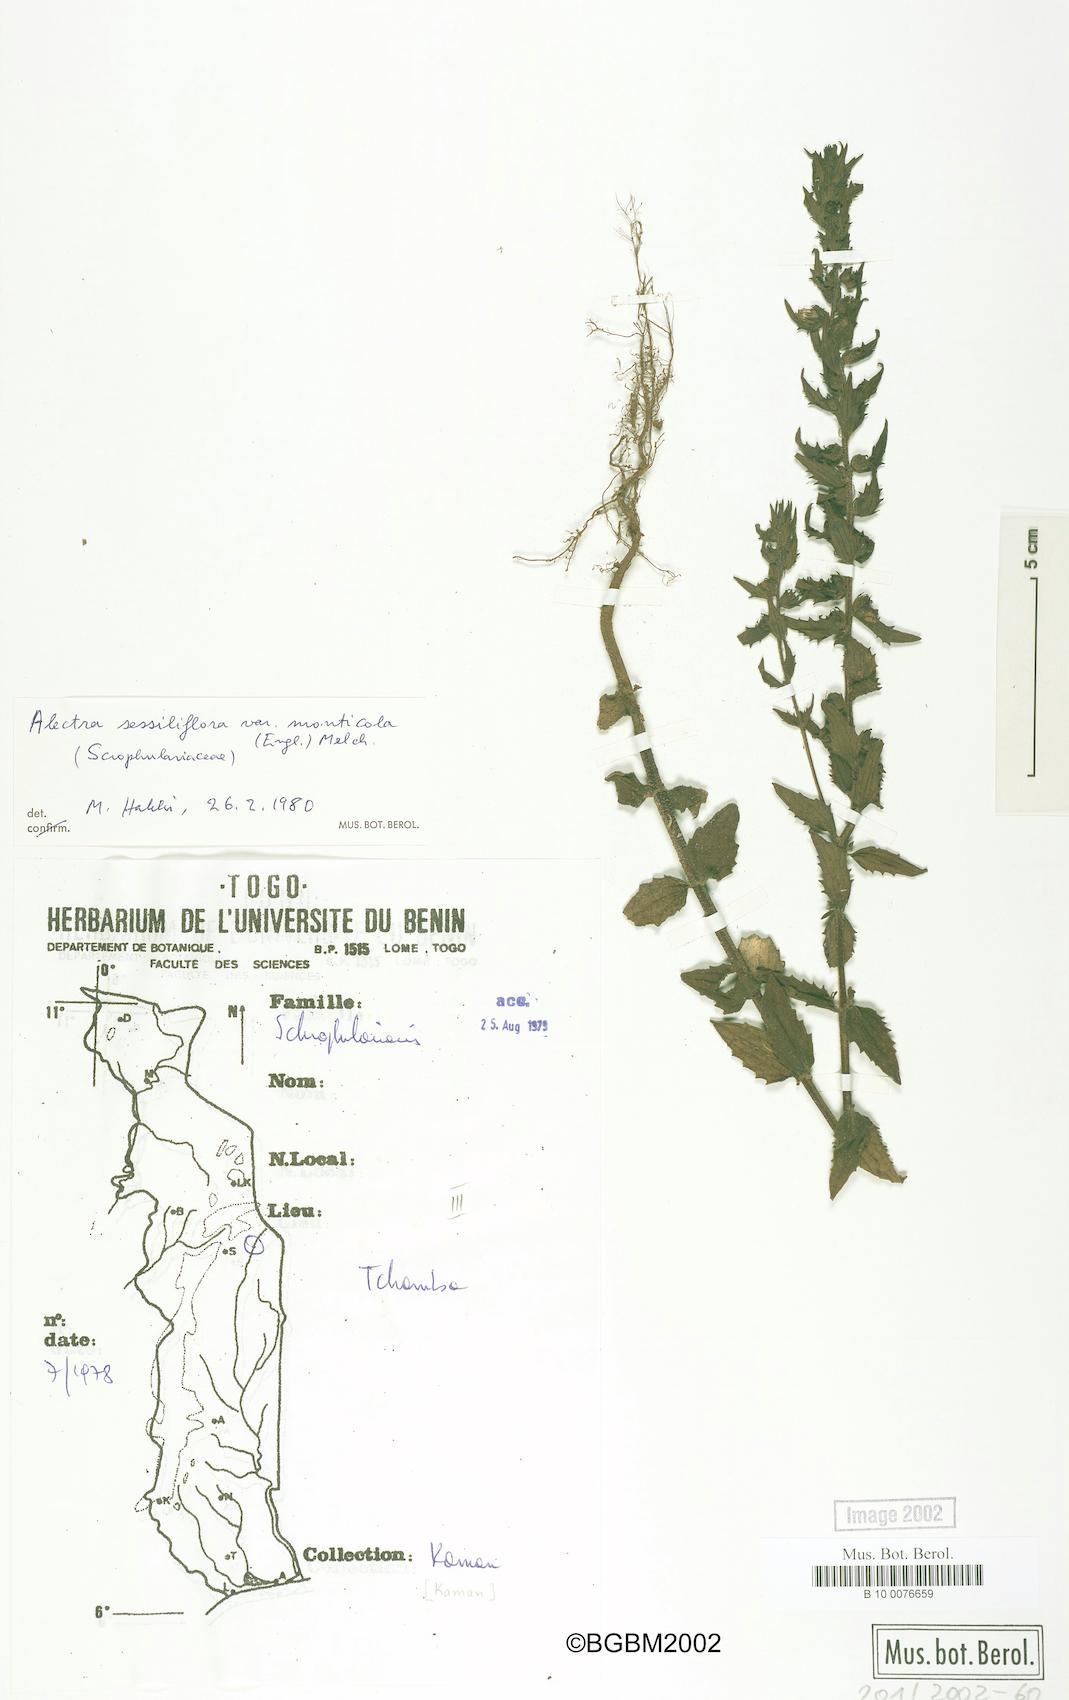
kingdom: Plantae
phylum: Tracheophyta
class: Magnoliopsida
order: Lamiales
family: Orobanchaceae
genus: Alectra
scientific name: Alectra sessiliflora
